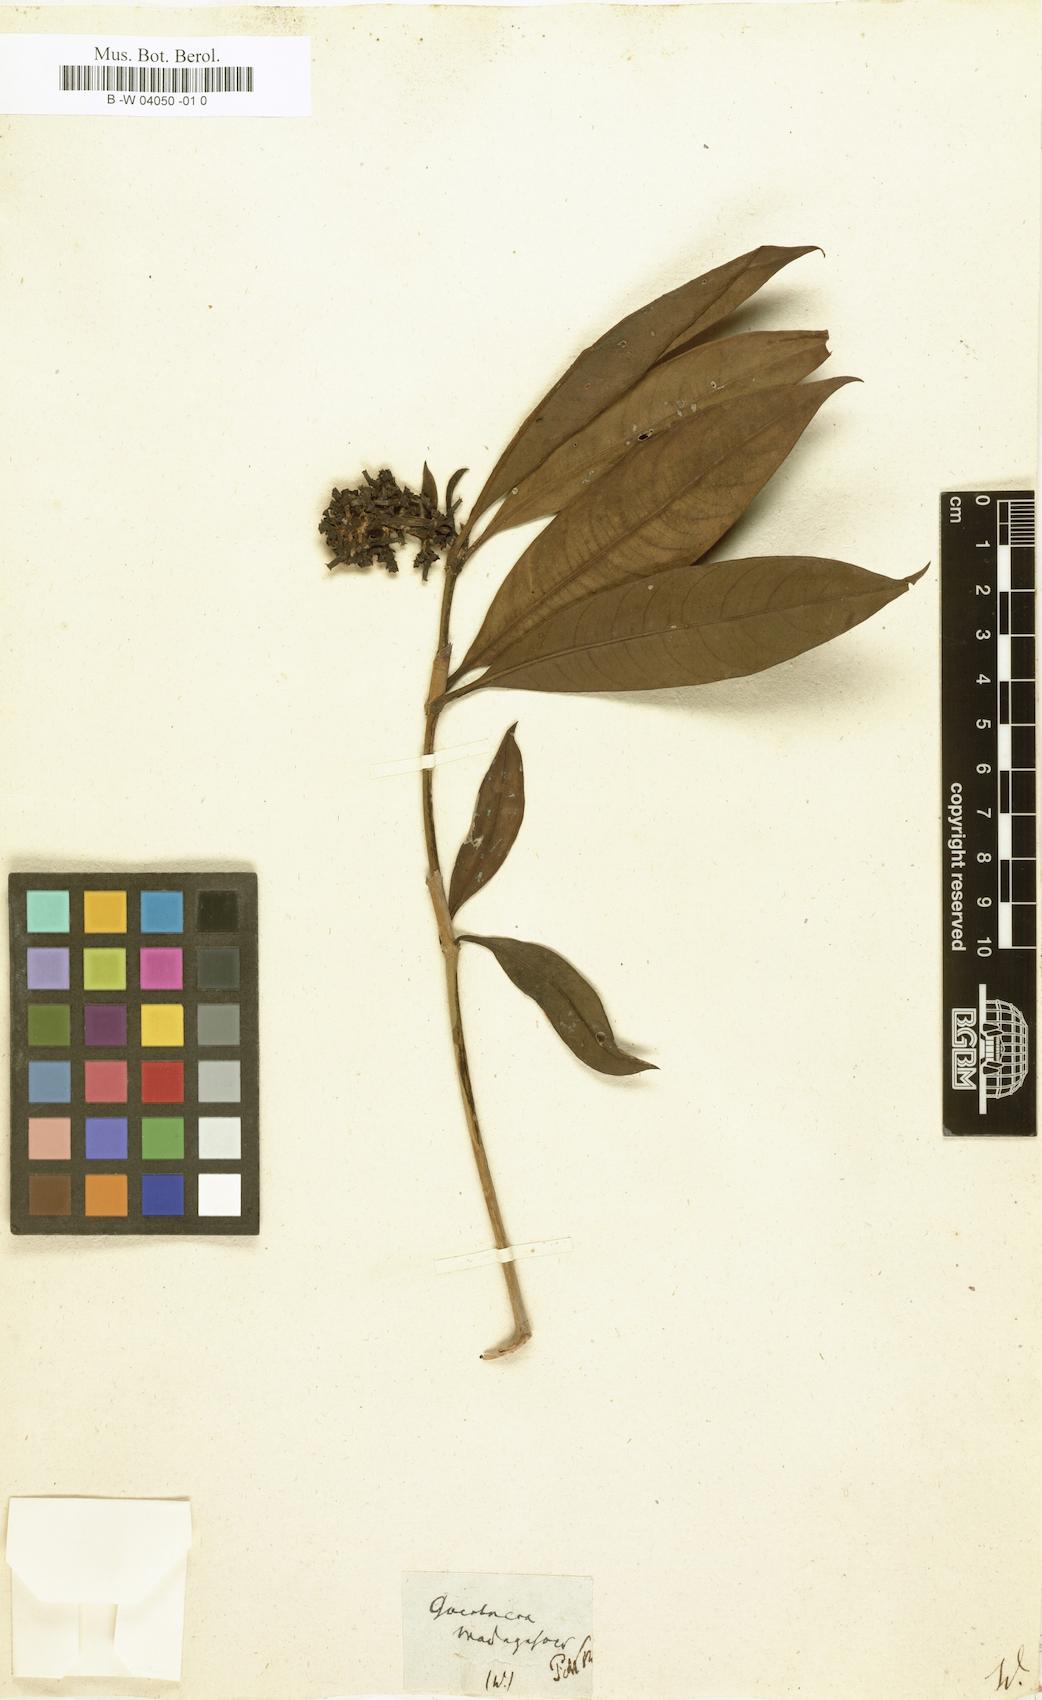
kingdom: Plantae
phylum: Tracheophyta
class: Magnoliopsida
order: Gentianales
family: Rubiaceae
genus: Gaertnera
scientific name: Gaertnera
